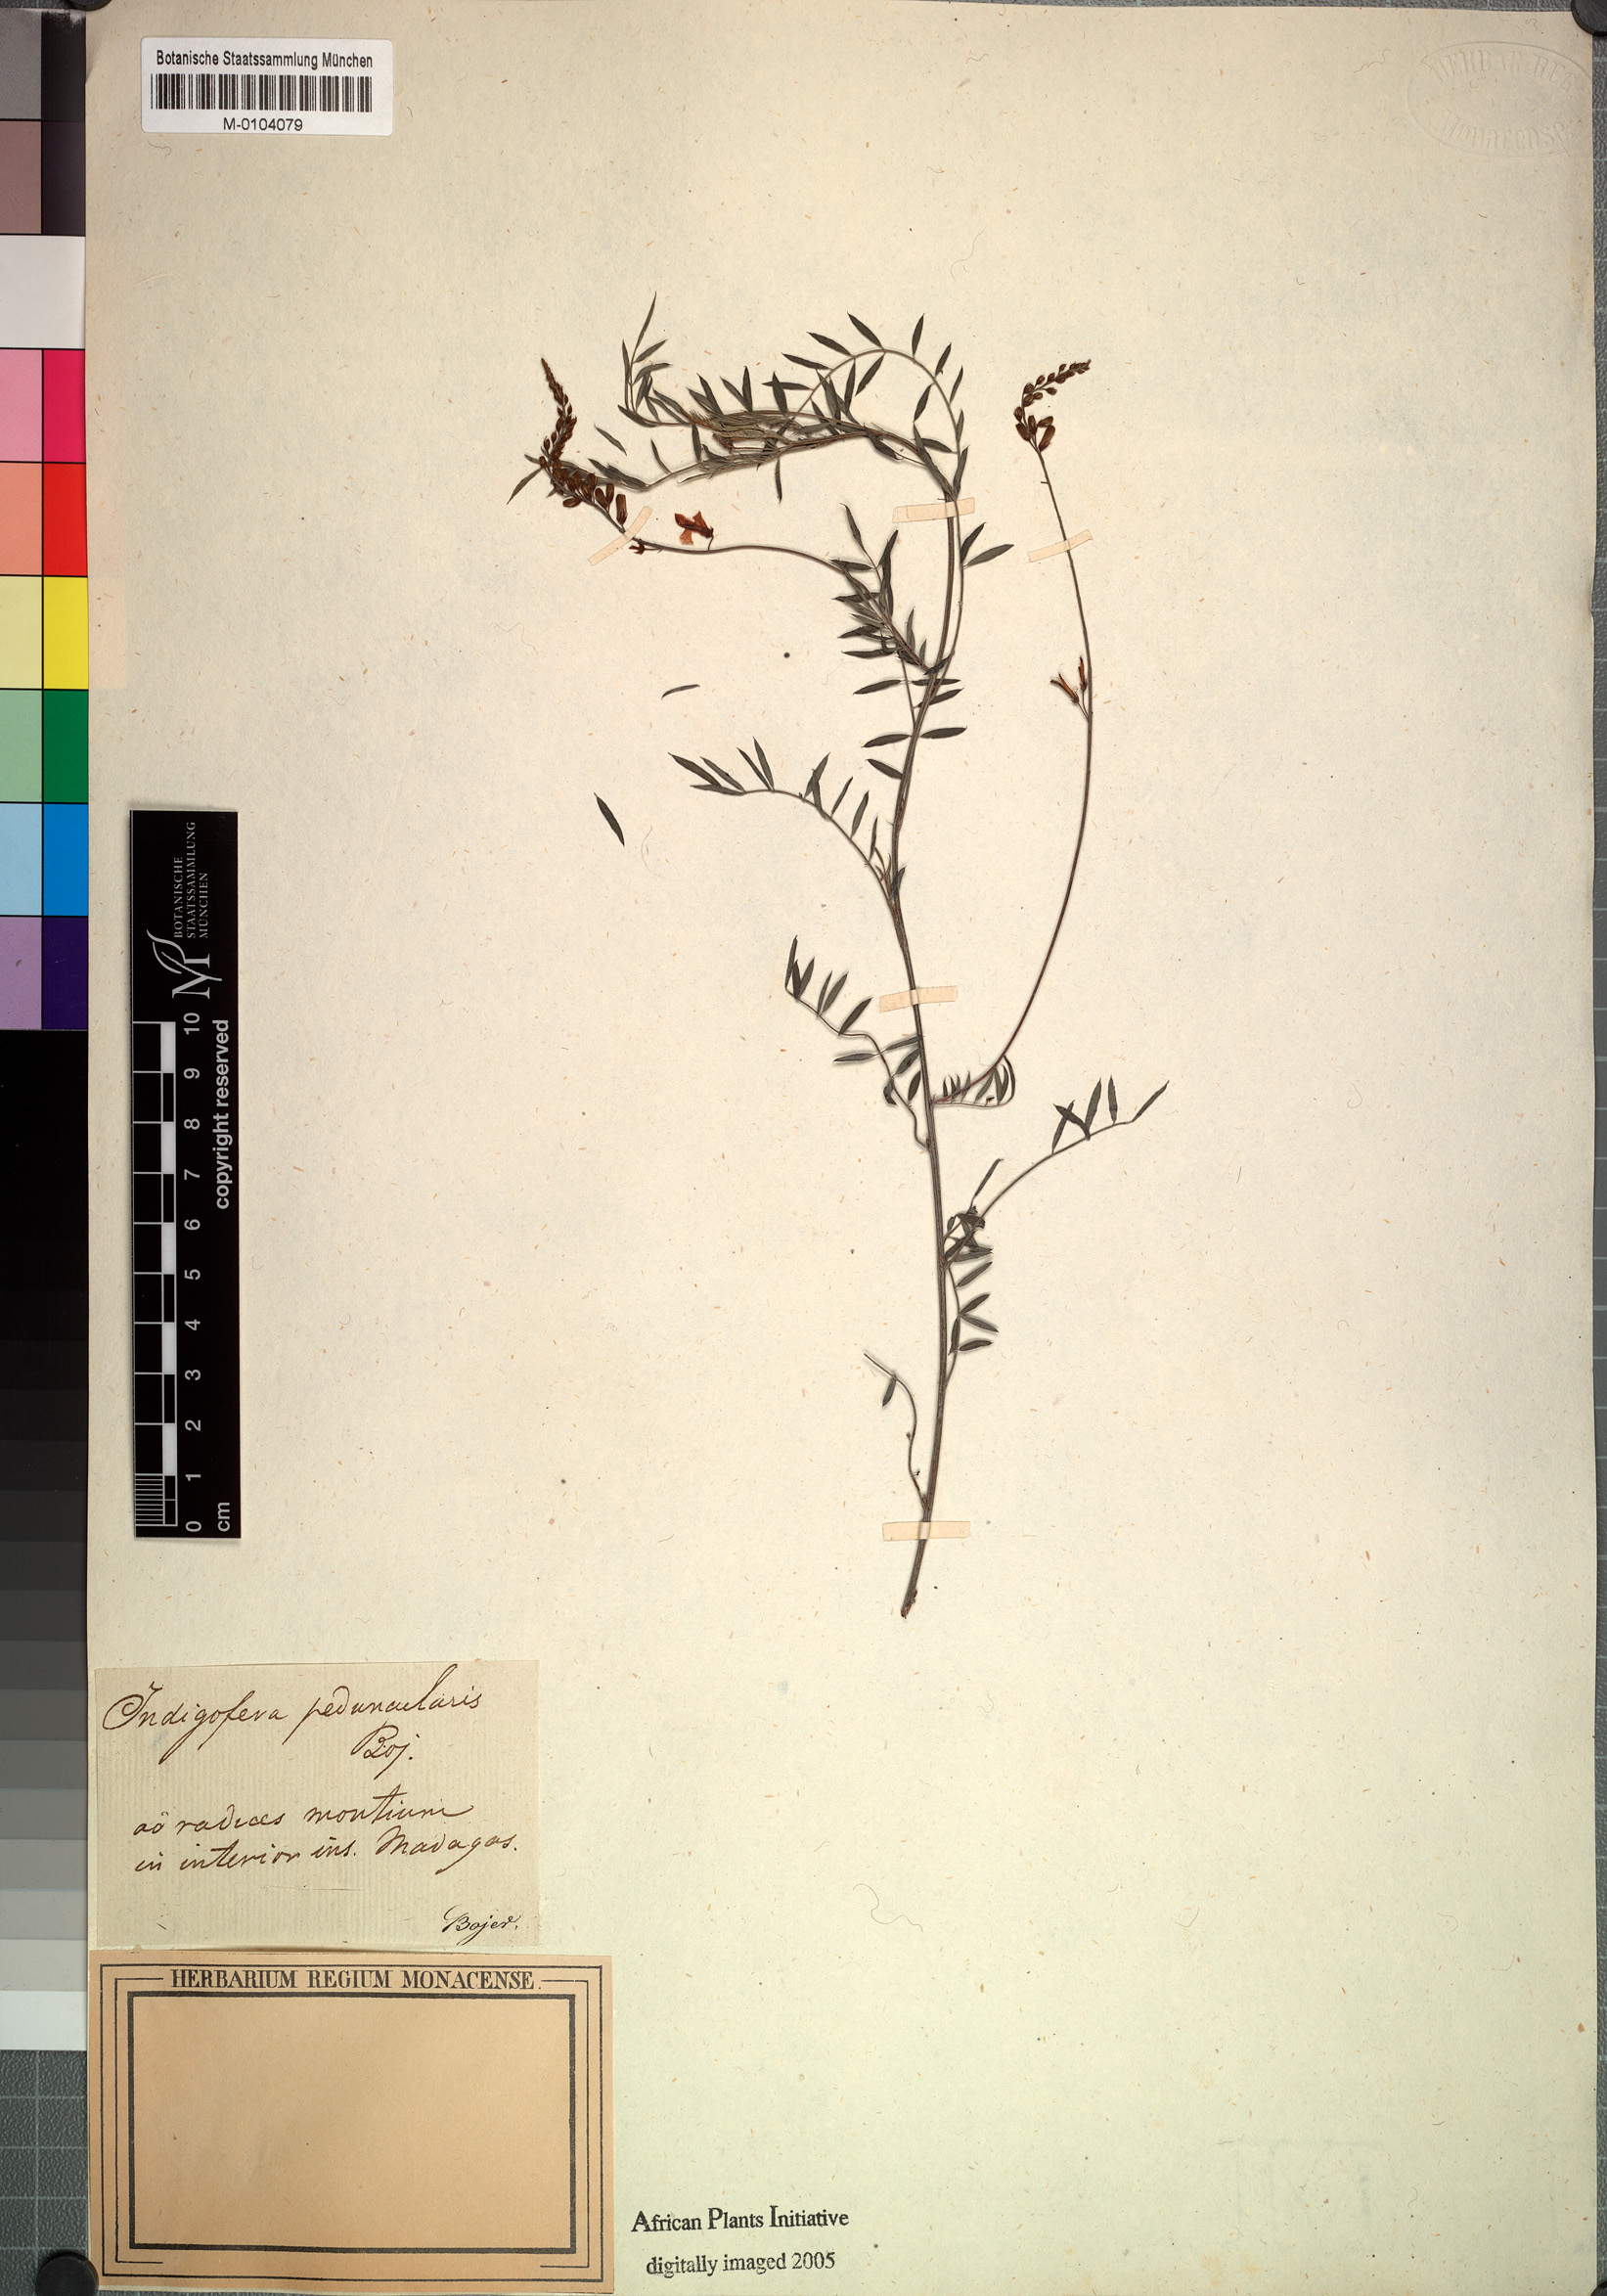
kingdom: Plantae
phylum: Tracheophyta
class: Magnoliopsida
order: Fabales
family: Fabaceae
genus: Indigofera
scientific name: Indigofera pedunculata
